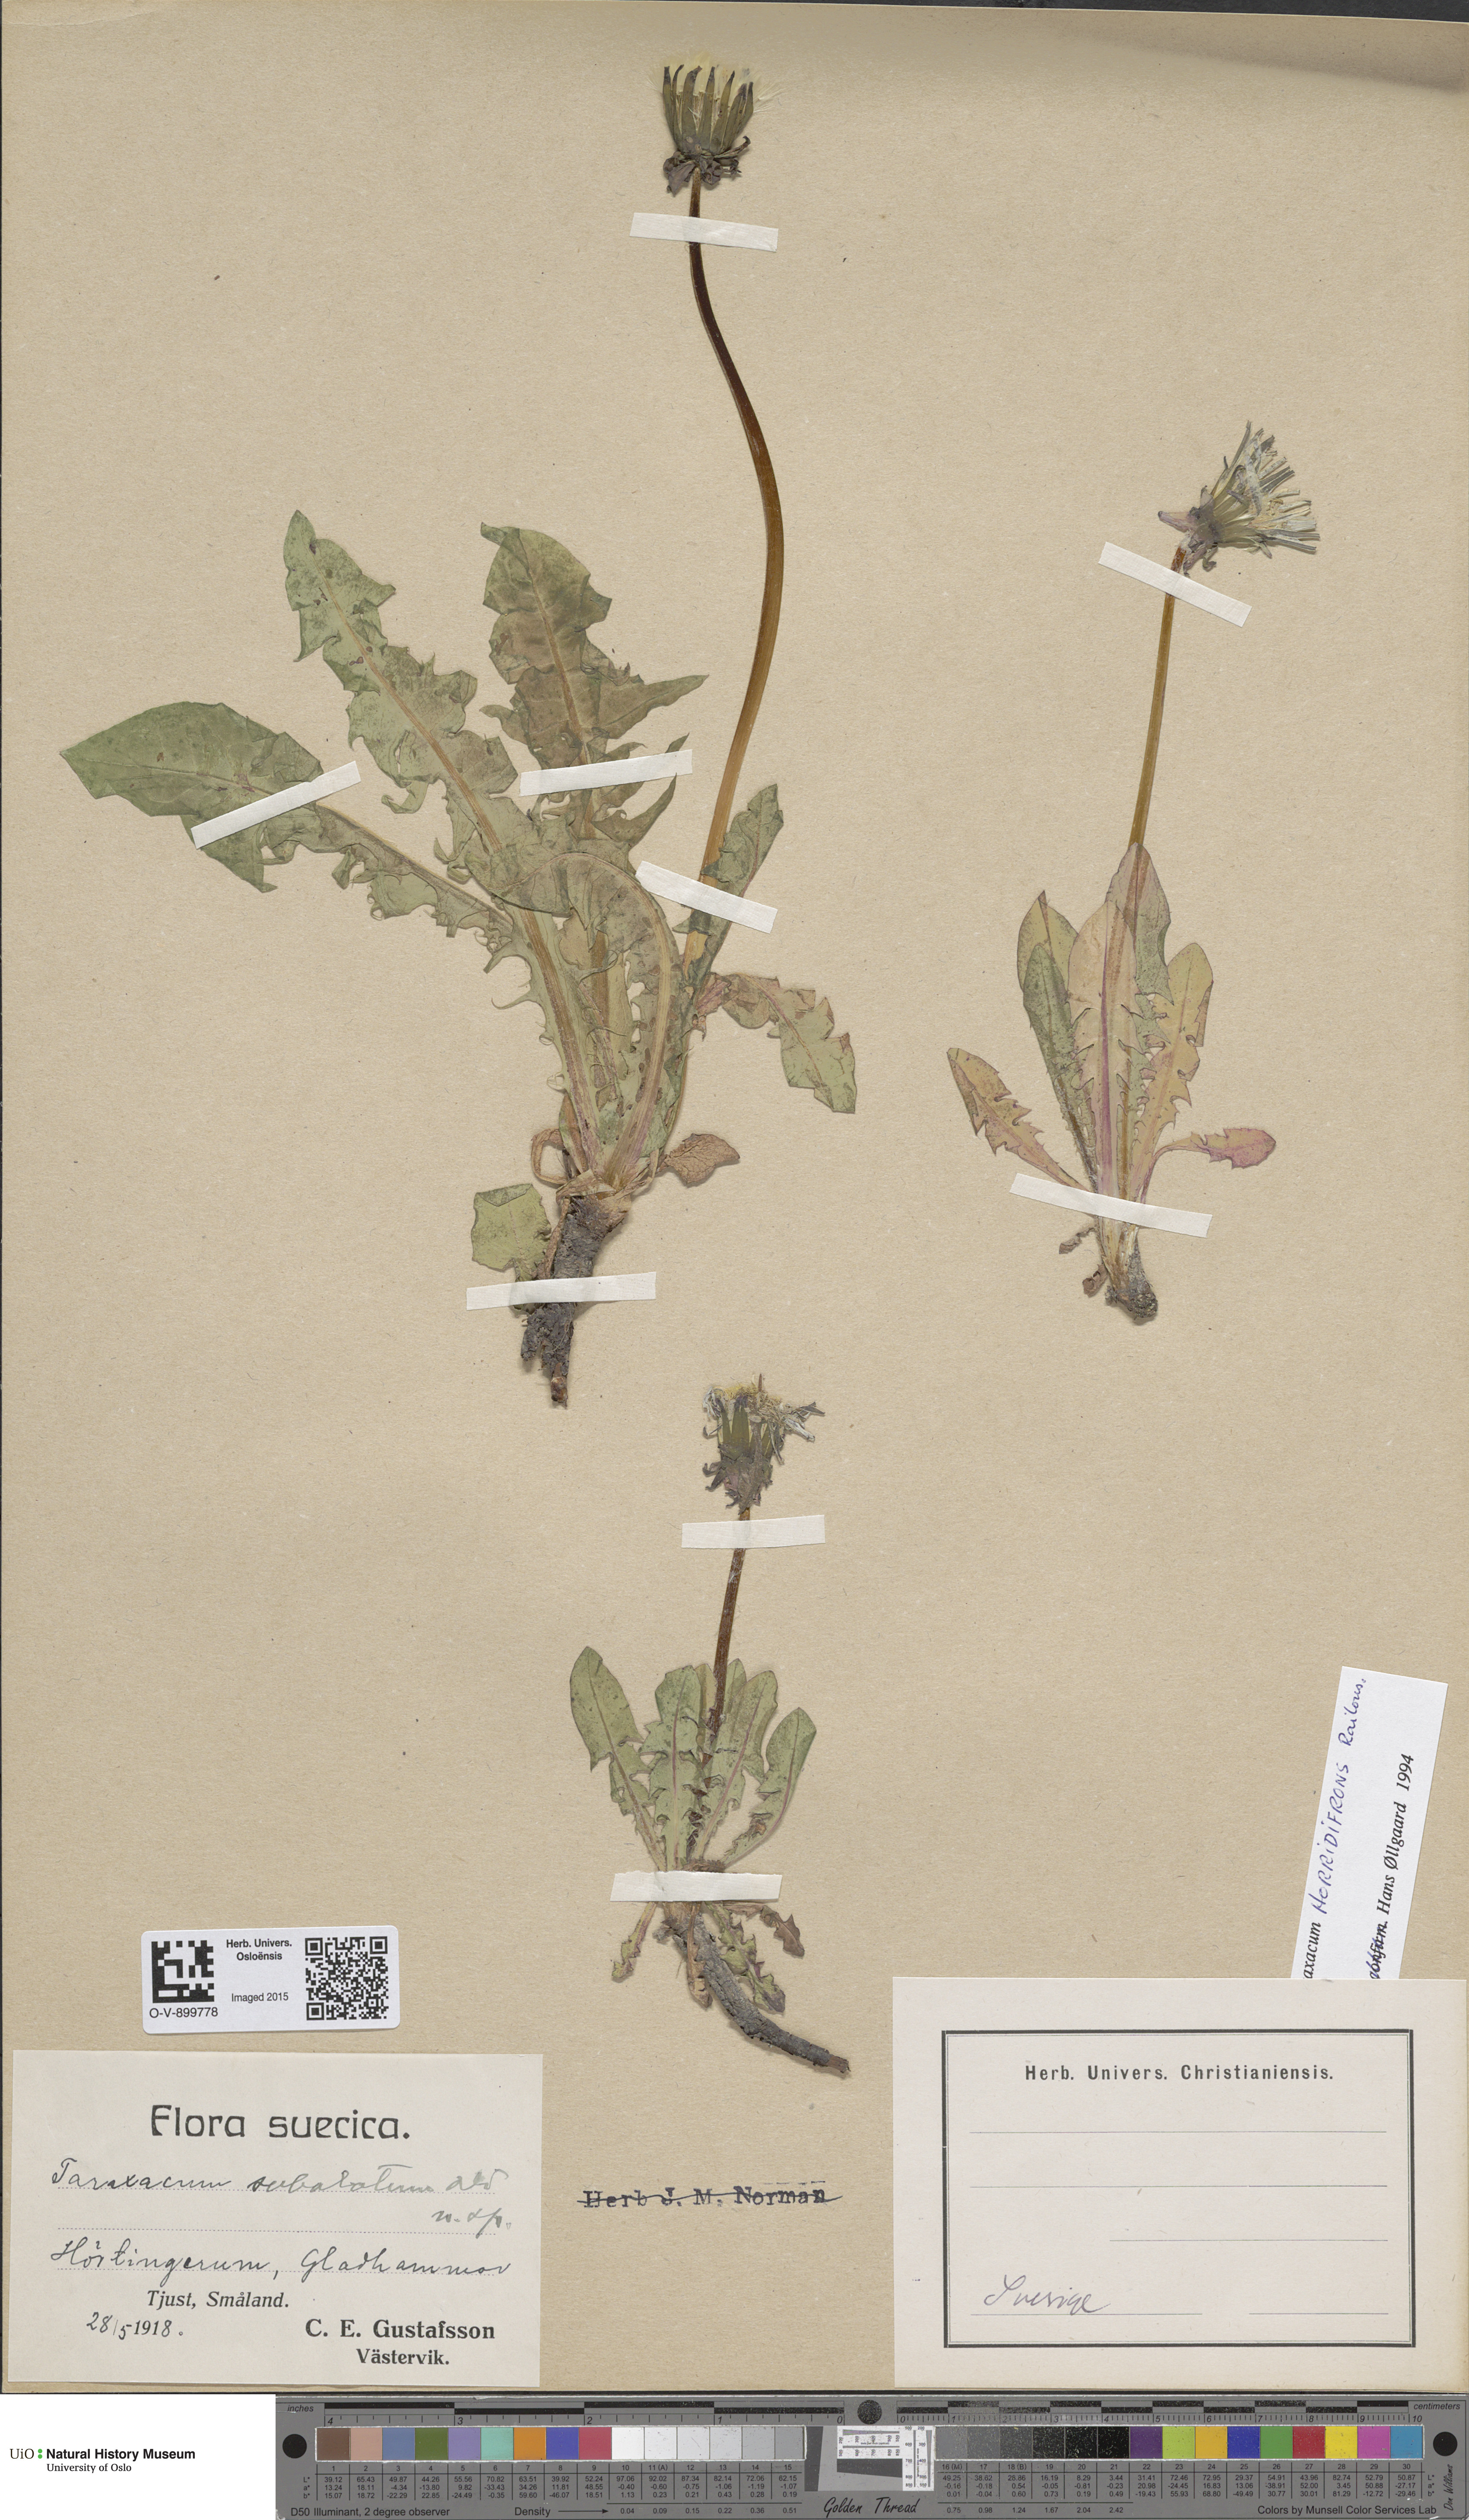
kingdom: Plantae
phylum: Tracheophyta
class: Magnoliopsida
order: Asterales
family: Asteraceae
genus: Taraxacum
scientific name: Taraxacum horridifrons
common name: Prickly-leaved dandelion
